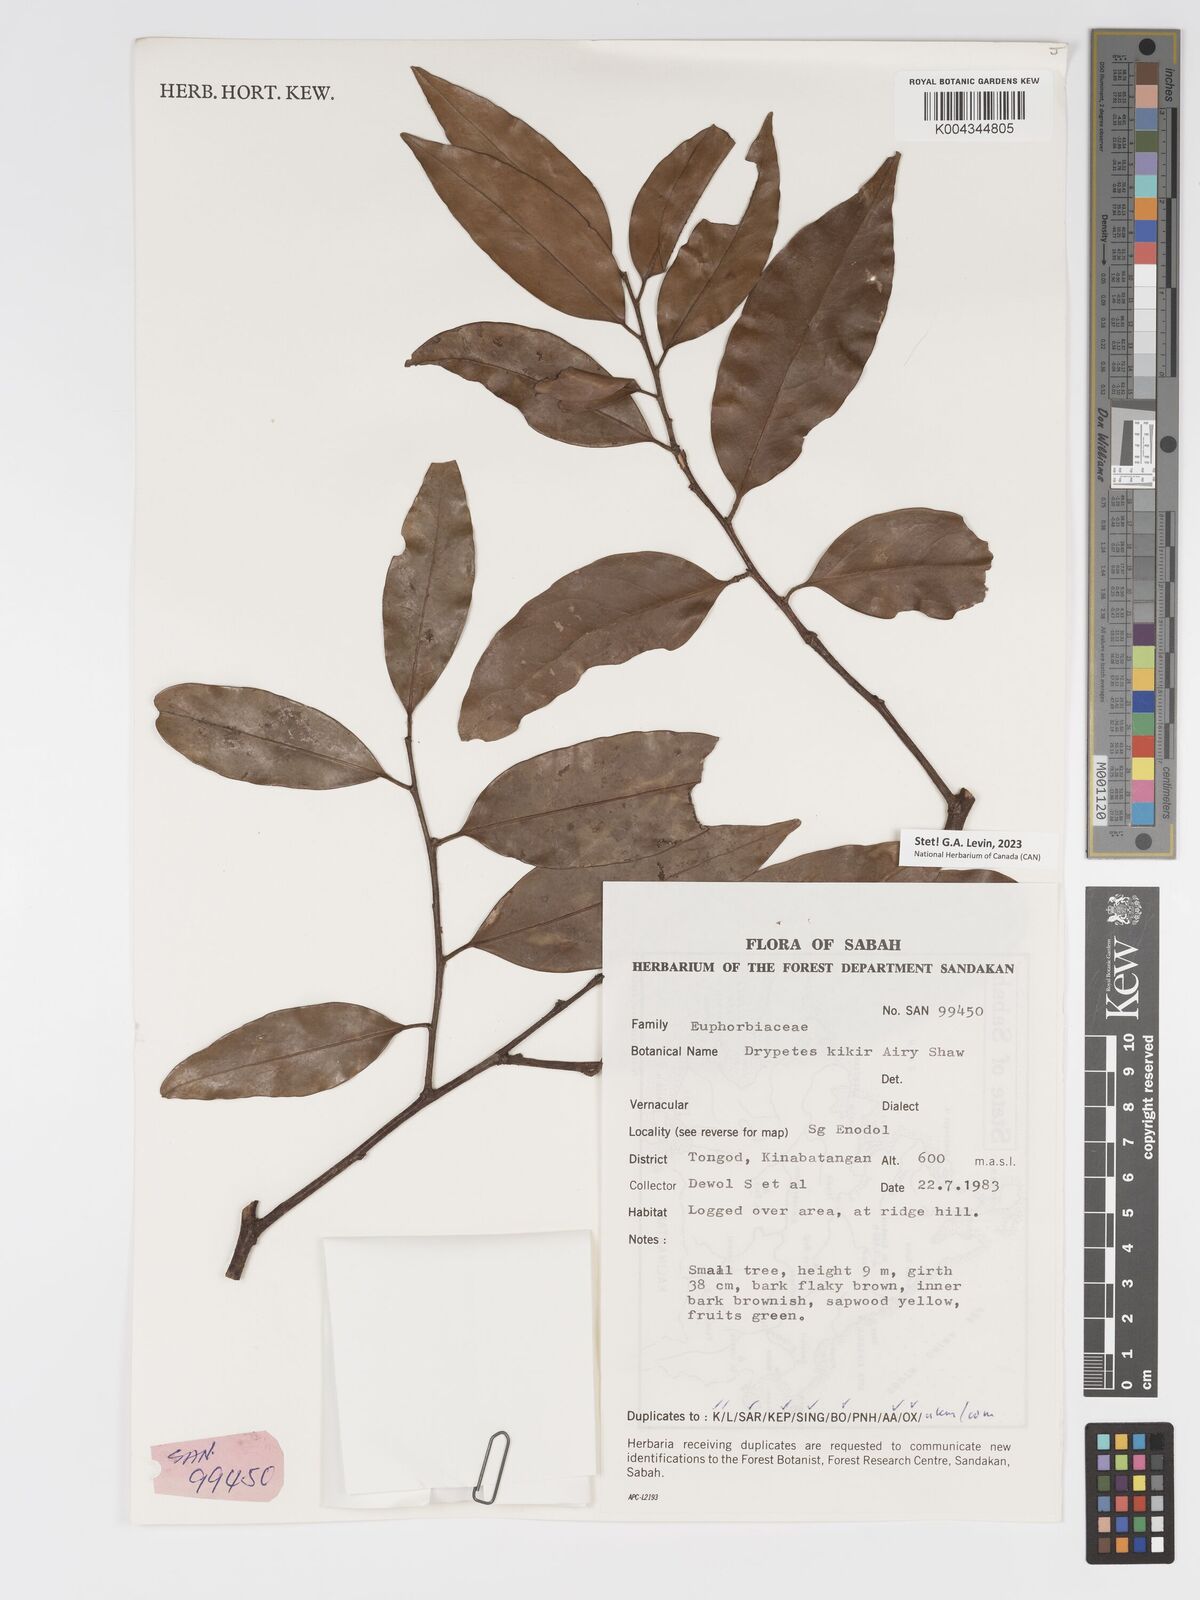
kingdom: Plantae
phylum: Tracheophyta
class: Magnoliopsida
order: Malpighiales
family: Putranjivaceae
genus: Drypetes
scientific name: Drypetes kikir
